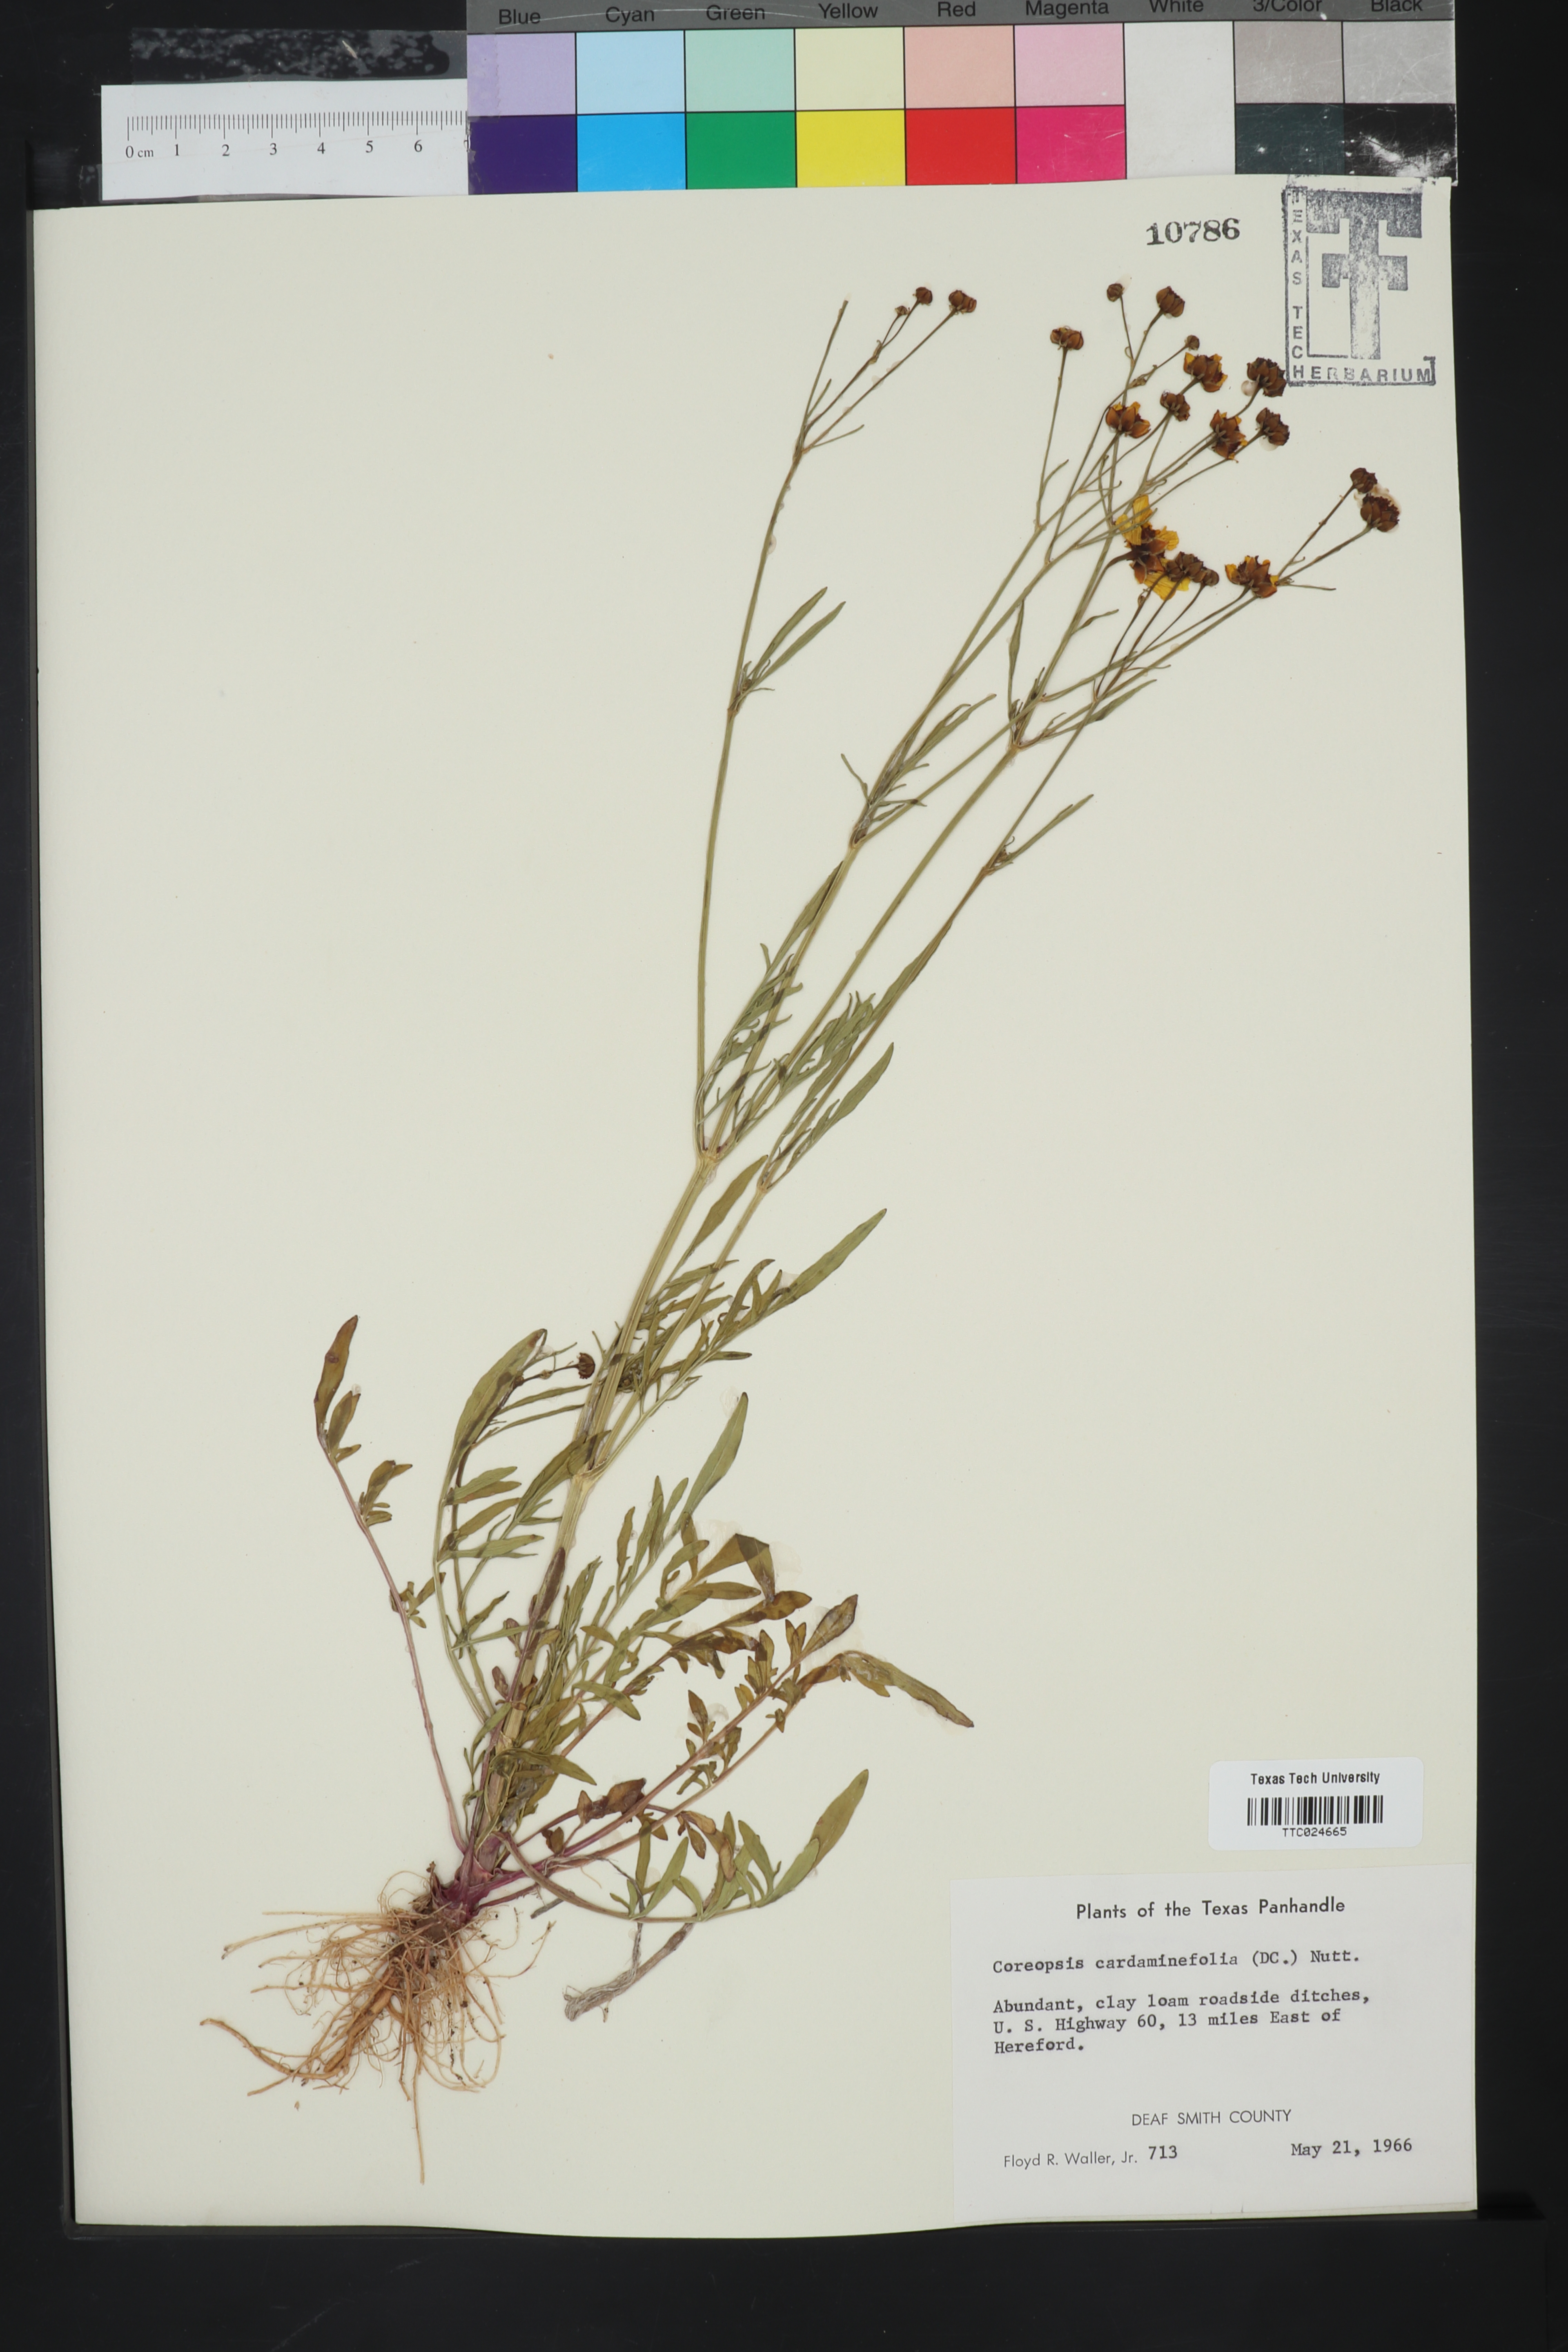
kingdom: Plantae
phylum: Tracheophyta
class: Magnoliopsida
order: Asterales
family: Asteraceae
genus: Coreopsis
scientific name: Coreopsis tinctoria
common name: Garden tickseed
